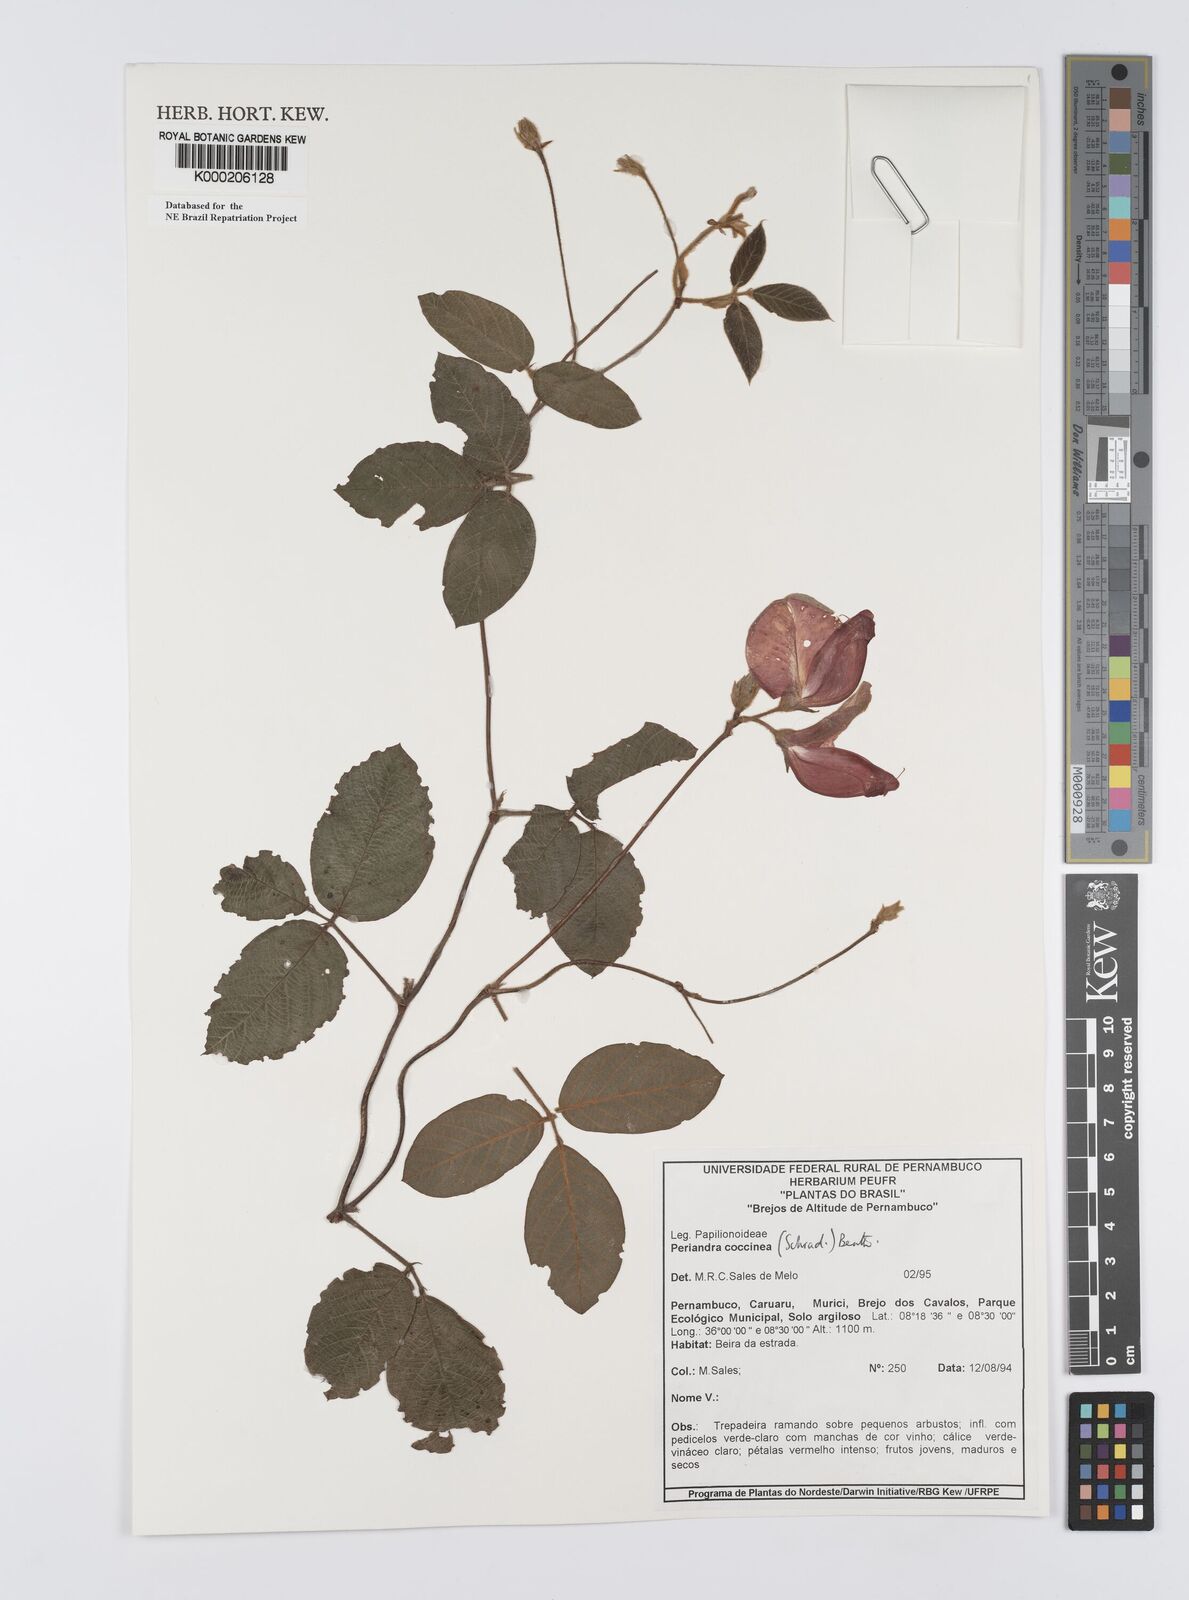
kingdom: Plantae
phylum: Tracheophyta
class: Magnoliopsida
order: Fabales
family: Fabaceae
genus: Periandra
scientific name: Periandra coccinea
